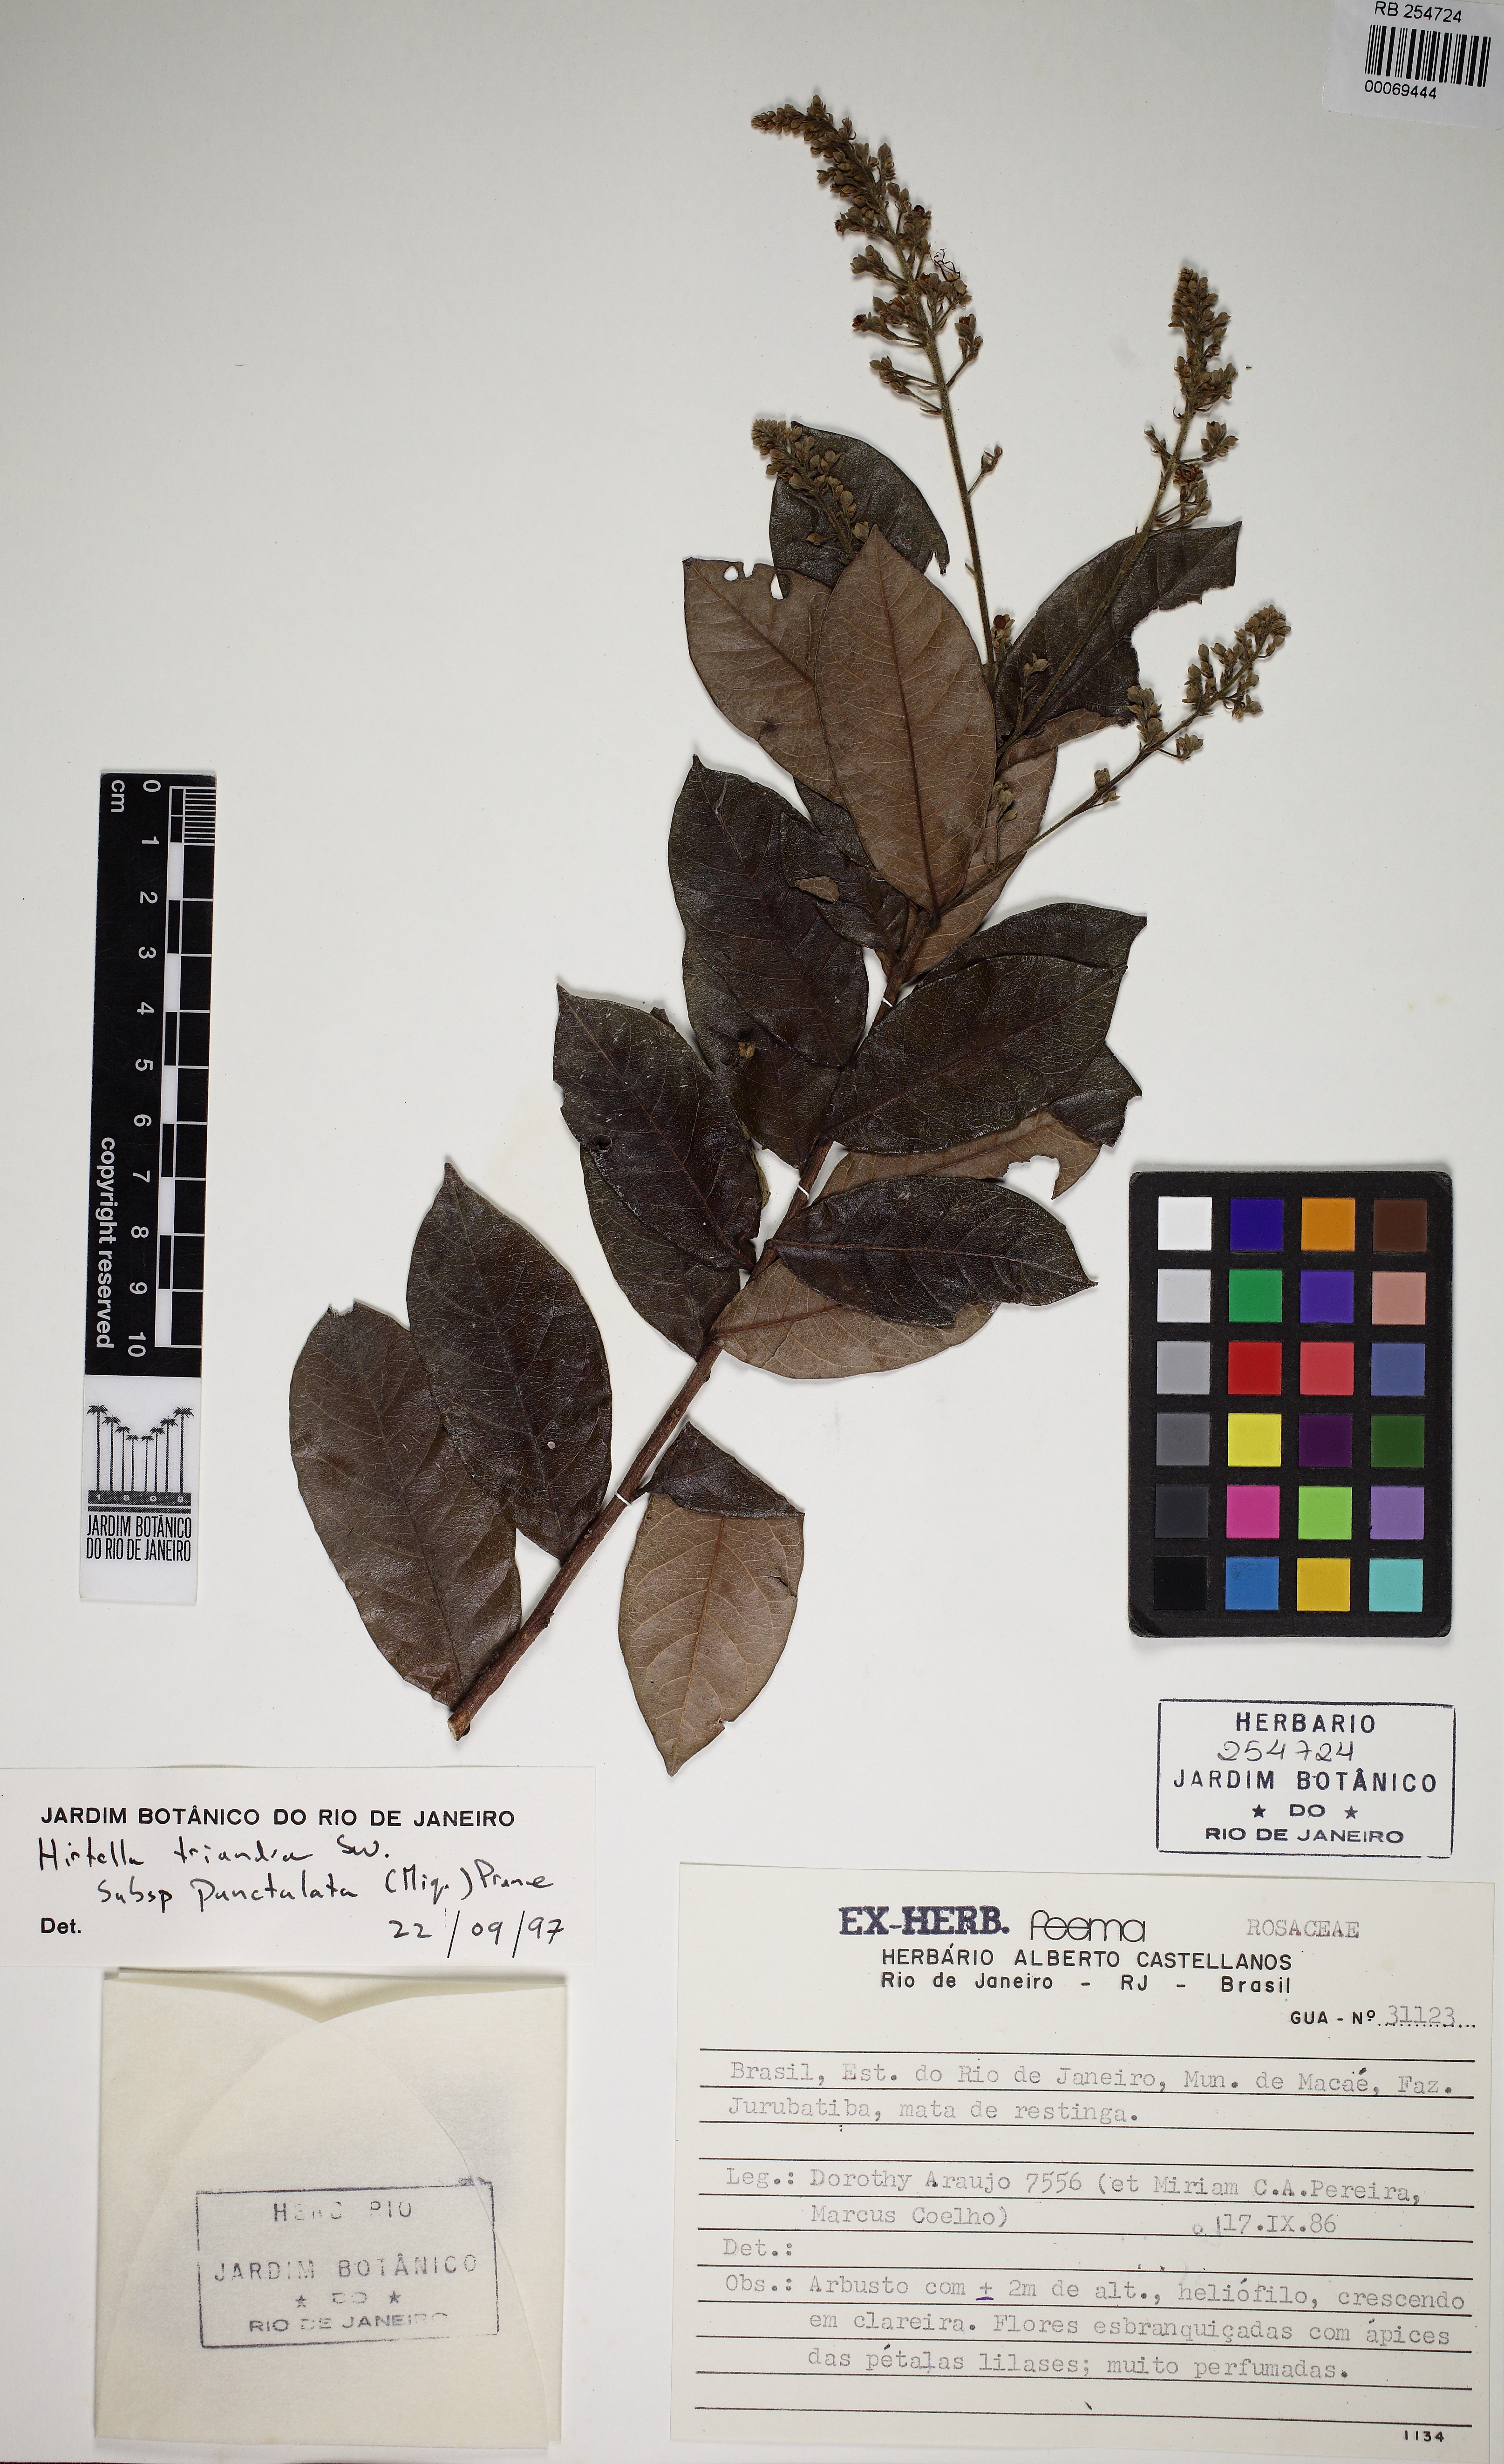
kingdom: Plantae
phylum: Tracheophyta
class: Magnoliopsida
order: Malpighiales
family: Chrysobalanaceae
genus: Hirtella
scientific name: Hirtella triandra
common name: Hairy plum
